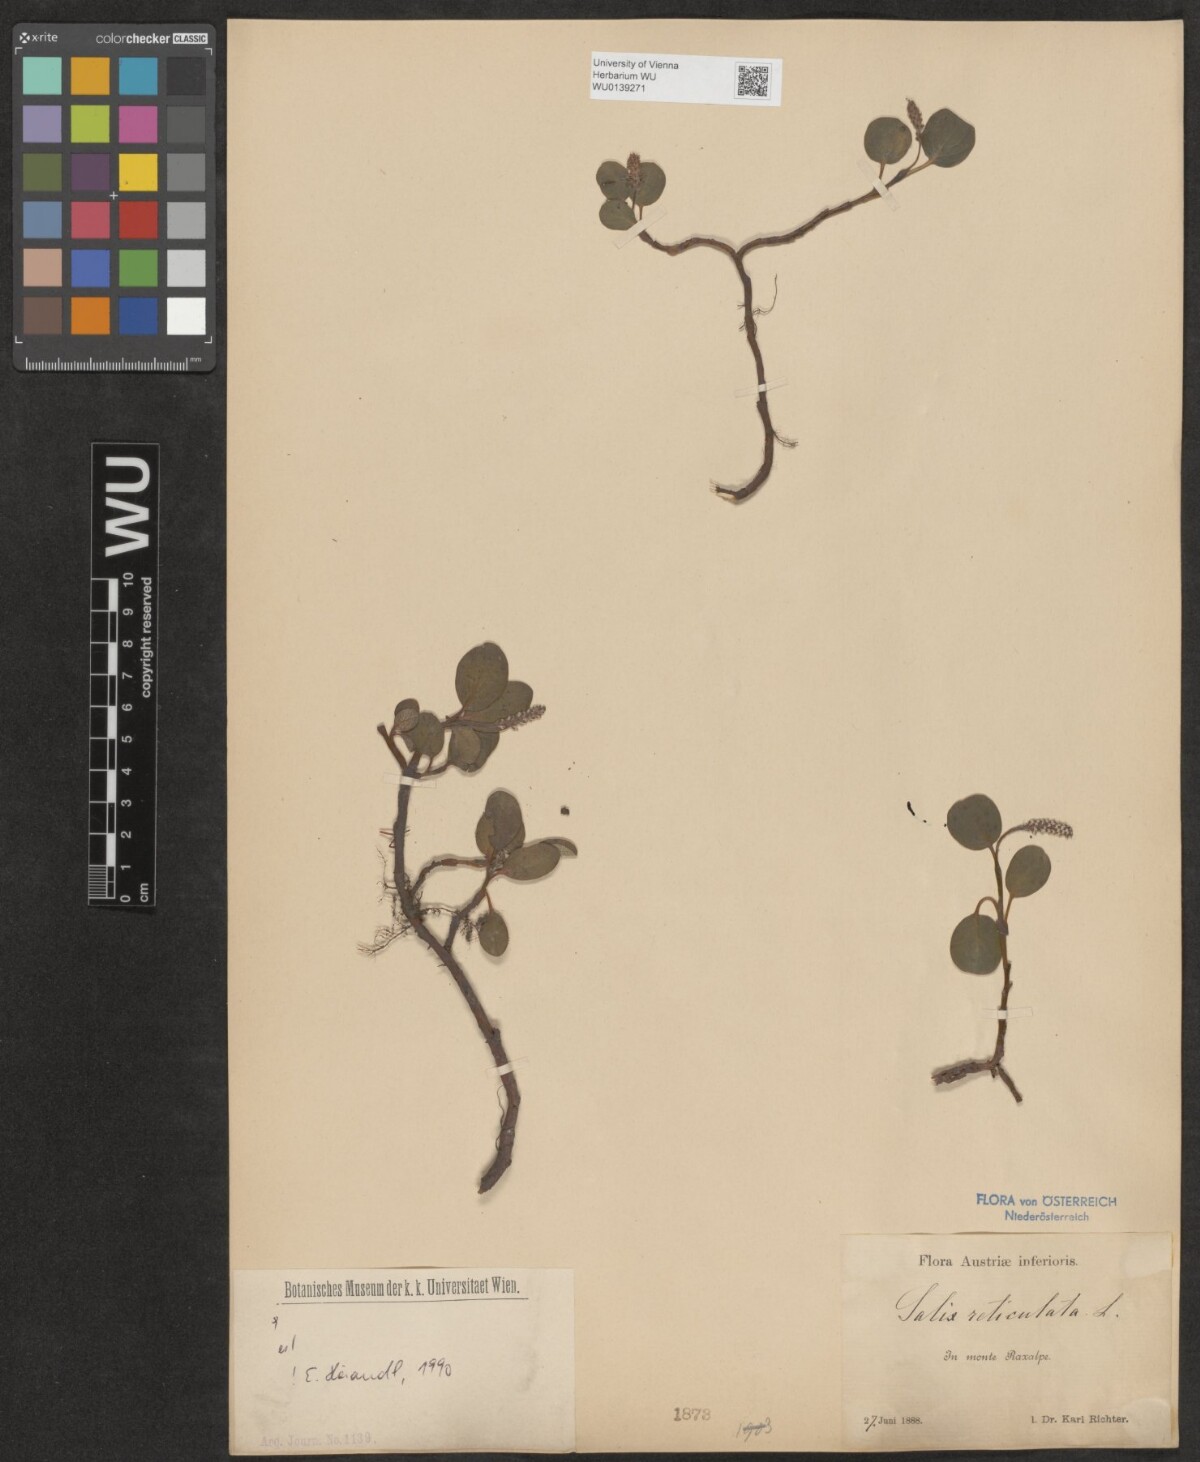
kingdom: Plantae
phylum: Tracheophyta
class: Magnoliopsida
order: Malpighiales
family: Salicaceae
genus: Salix
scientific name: Salix reticulata
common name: Net-leaved willow
